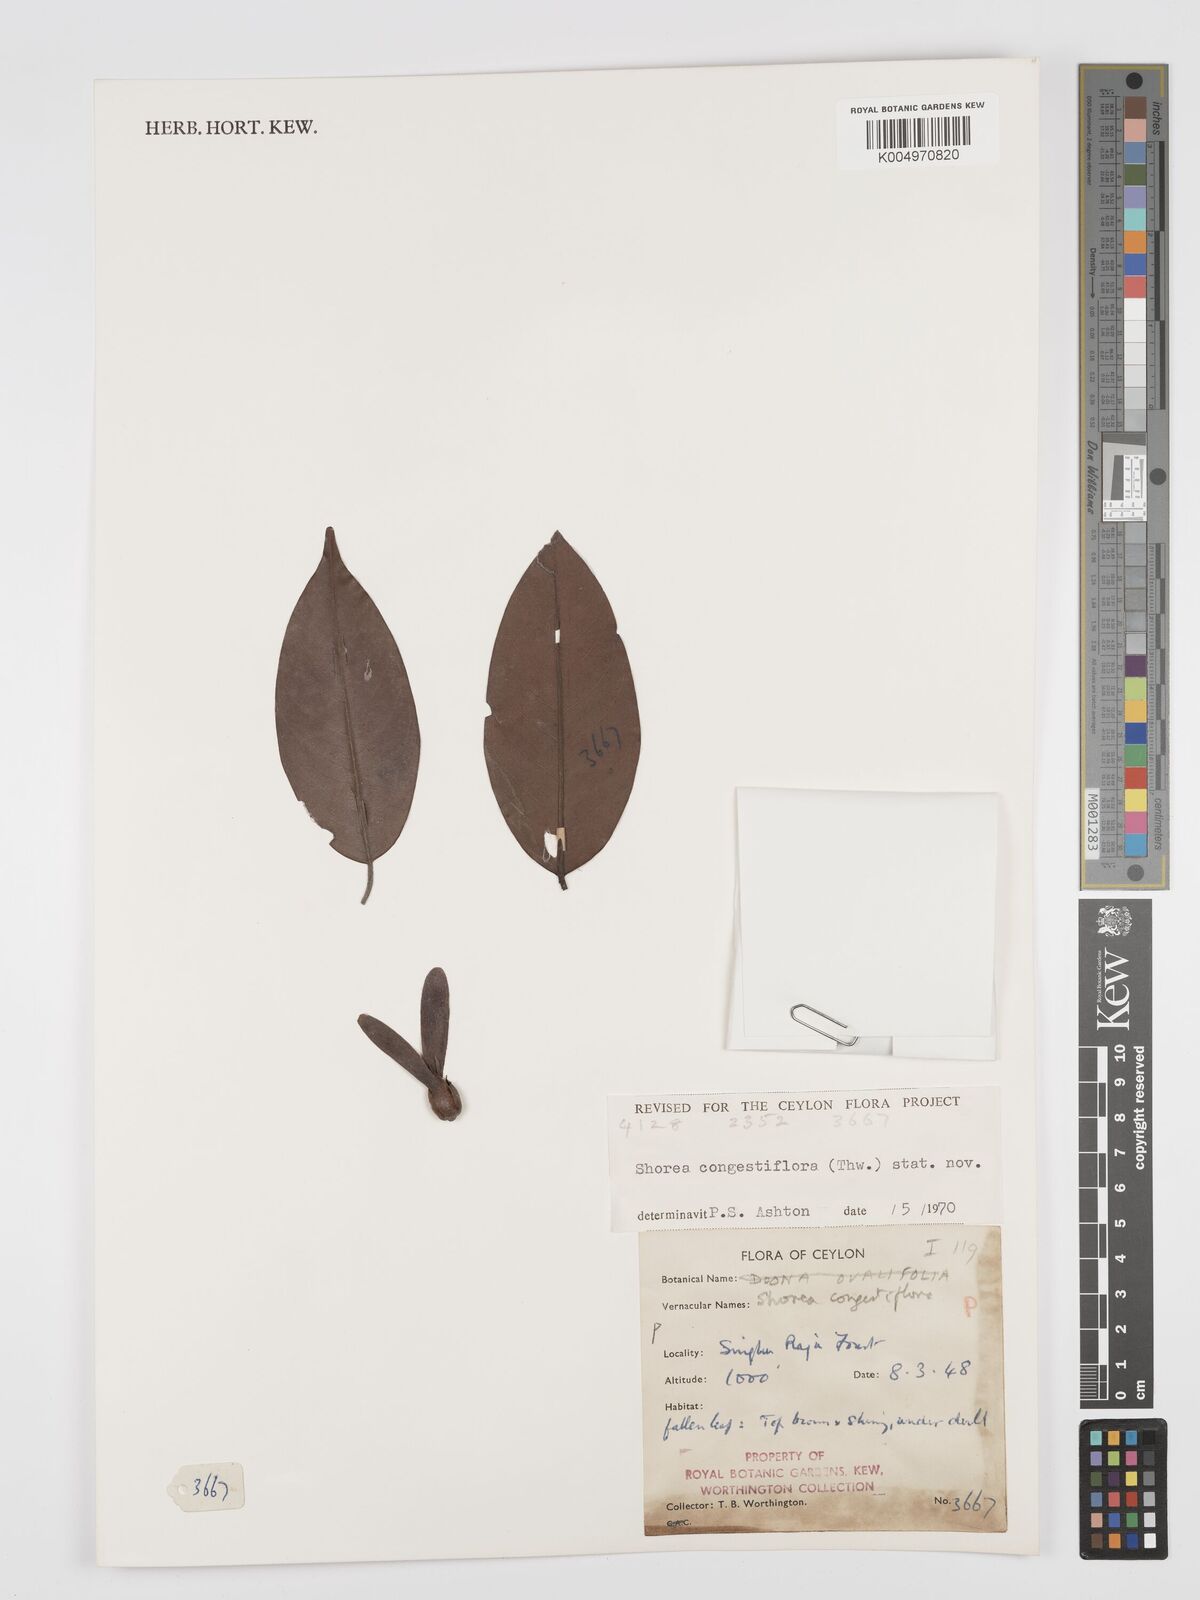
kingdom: Plantae
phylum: Tracheophyta
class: Magnoliopsida
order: Malvales
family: Dipterocarpaceae
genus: Doona
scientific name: Doona congestiflora
